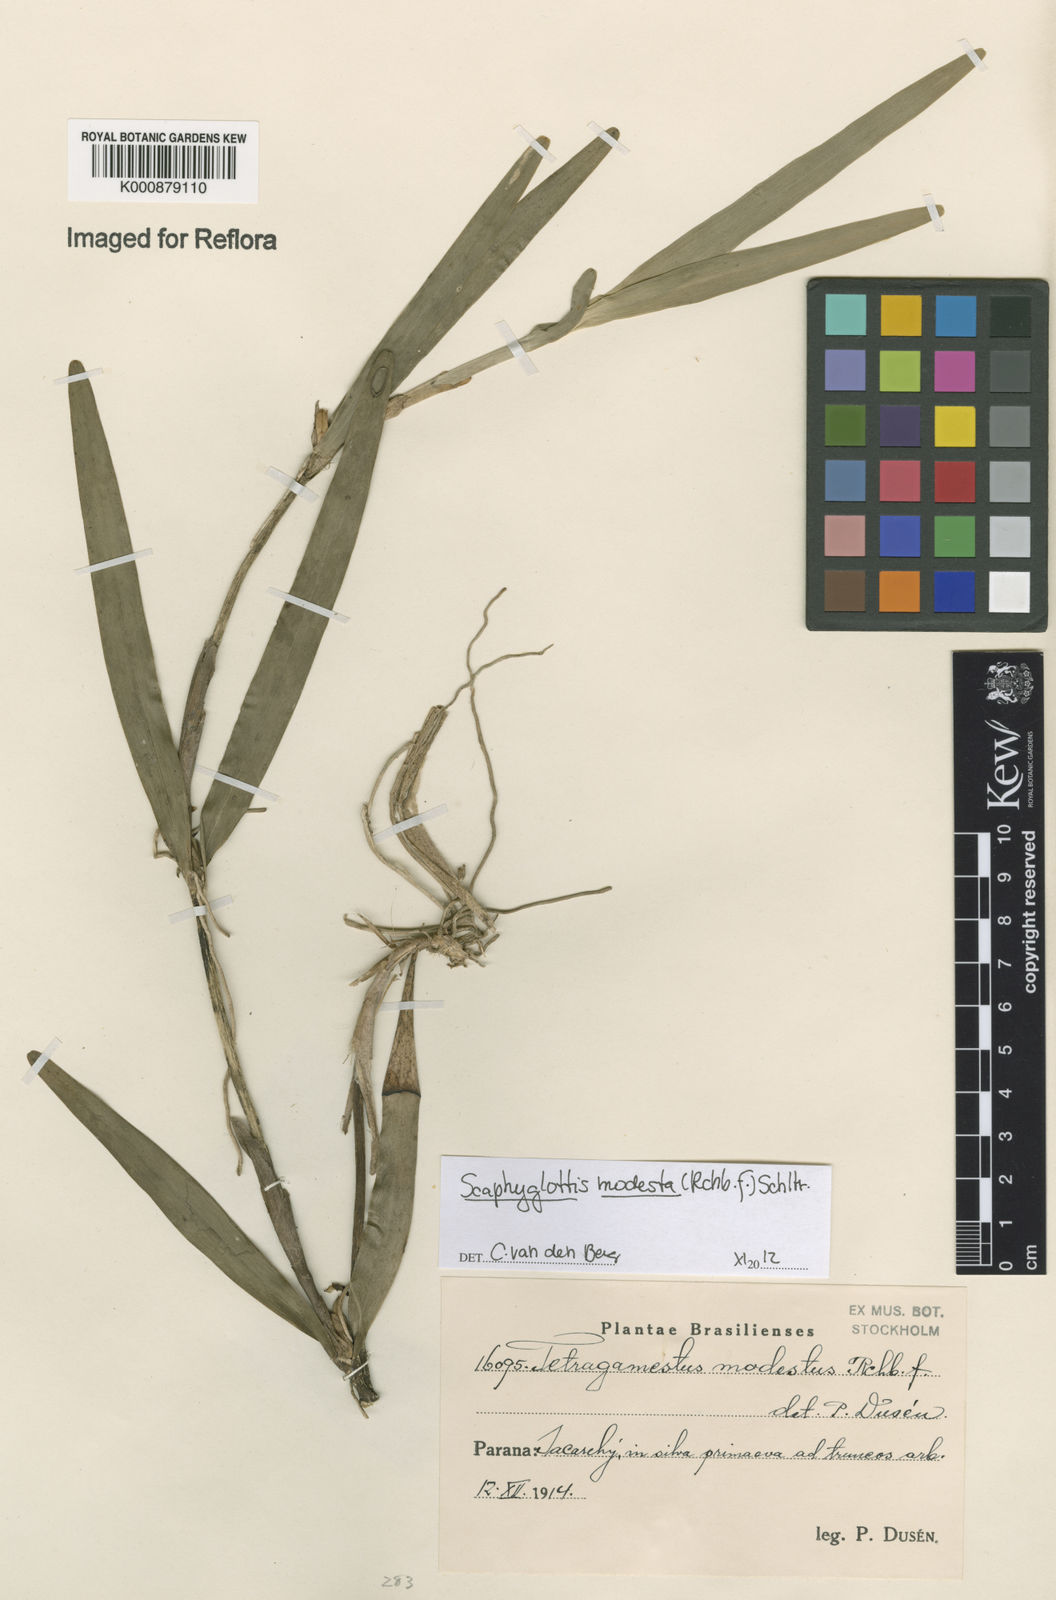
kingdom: Plantae
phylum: Tracheophyta
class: Liliopsida
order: Asparagales
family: Orchidaceae
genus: Scaphyglottis
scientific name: Scaphyglottis modesta
